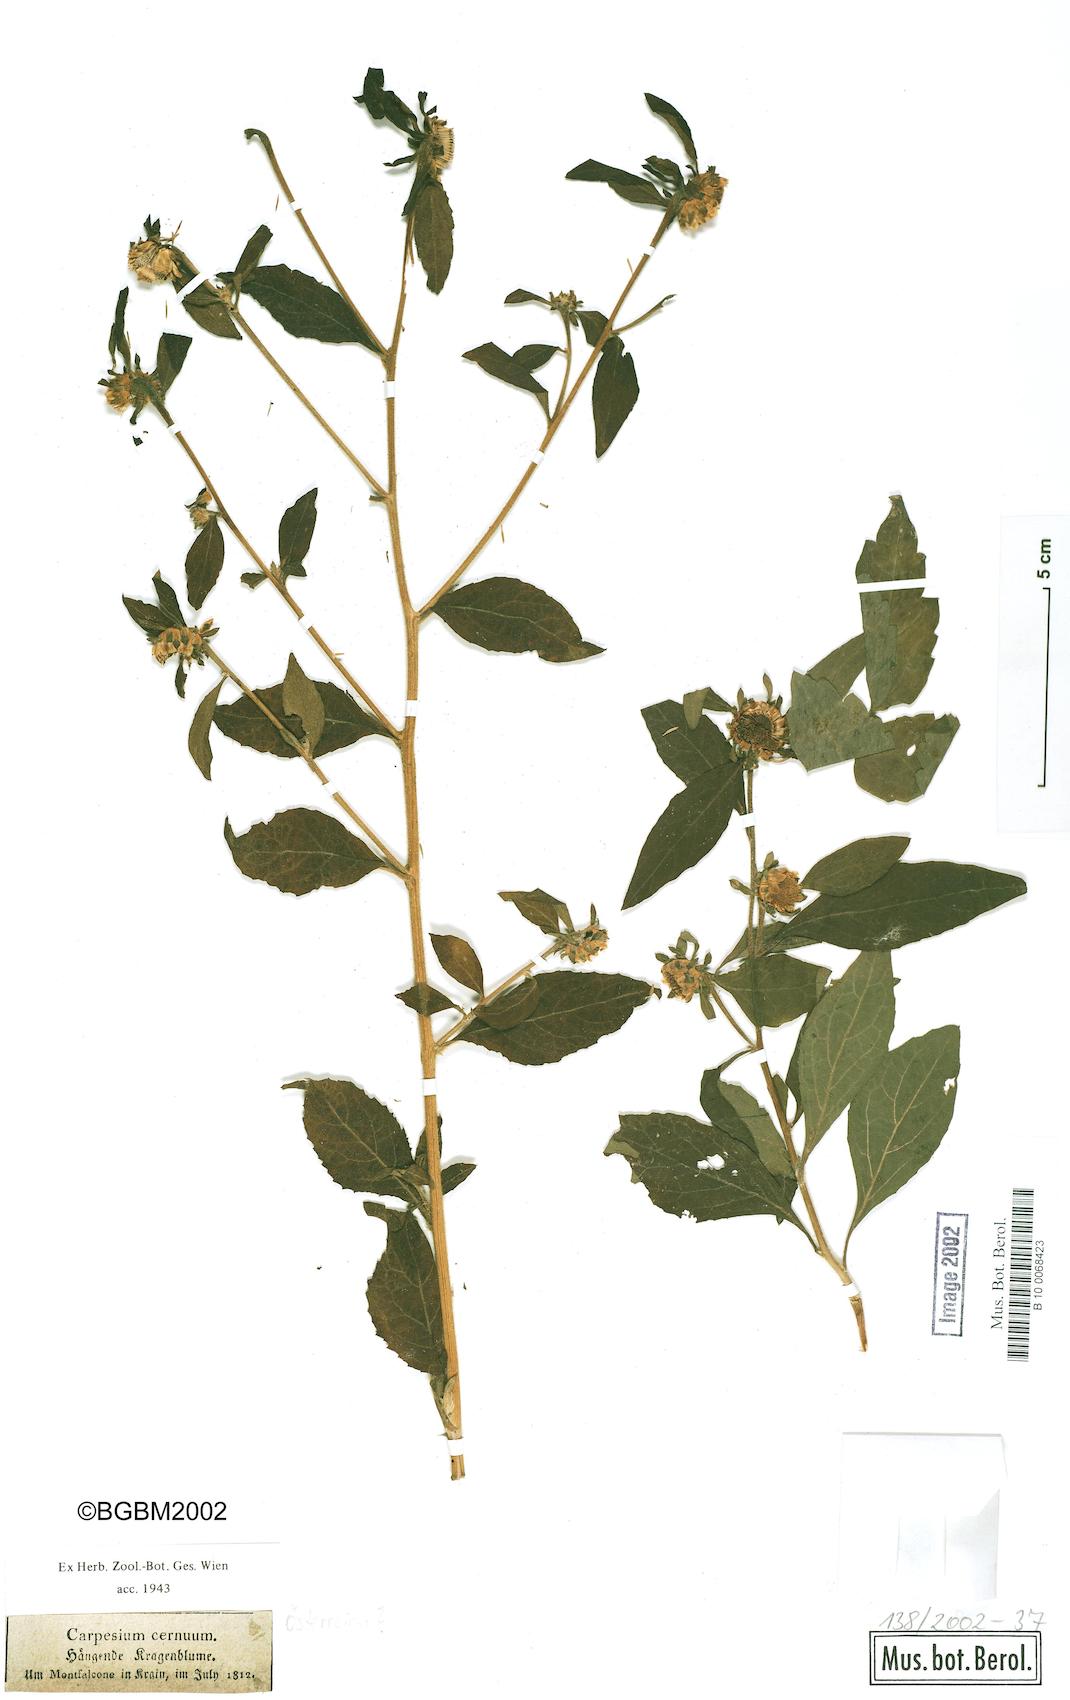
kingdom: Plantae
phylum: Tracheophyta
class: Magnoliopsida
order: Asterales
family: Asteraceae
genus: Carpesium
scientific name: Carpesium cernuum
